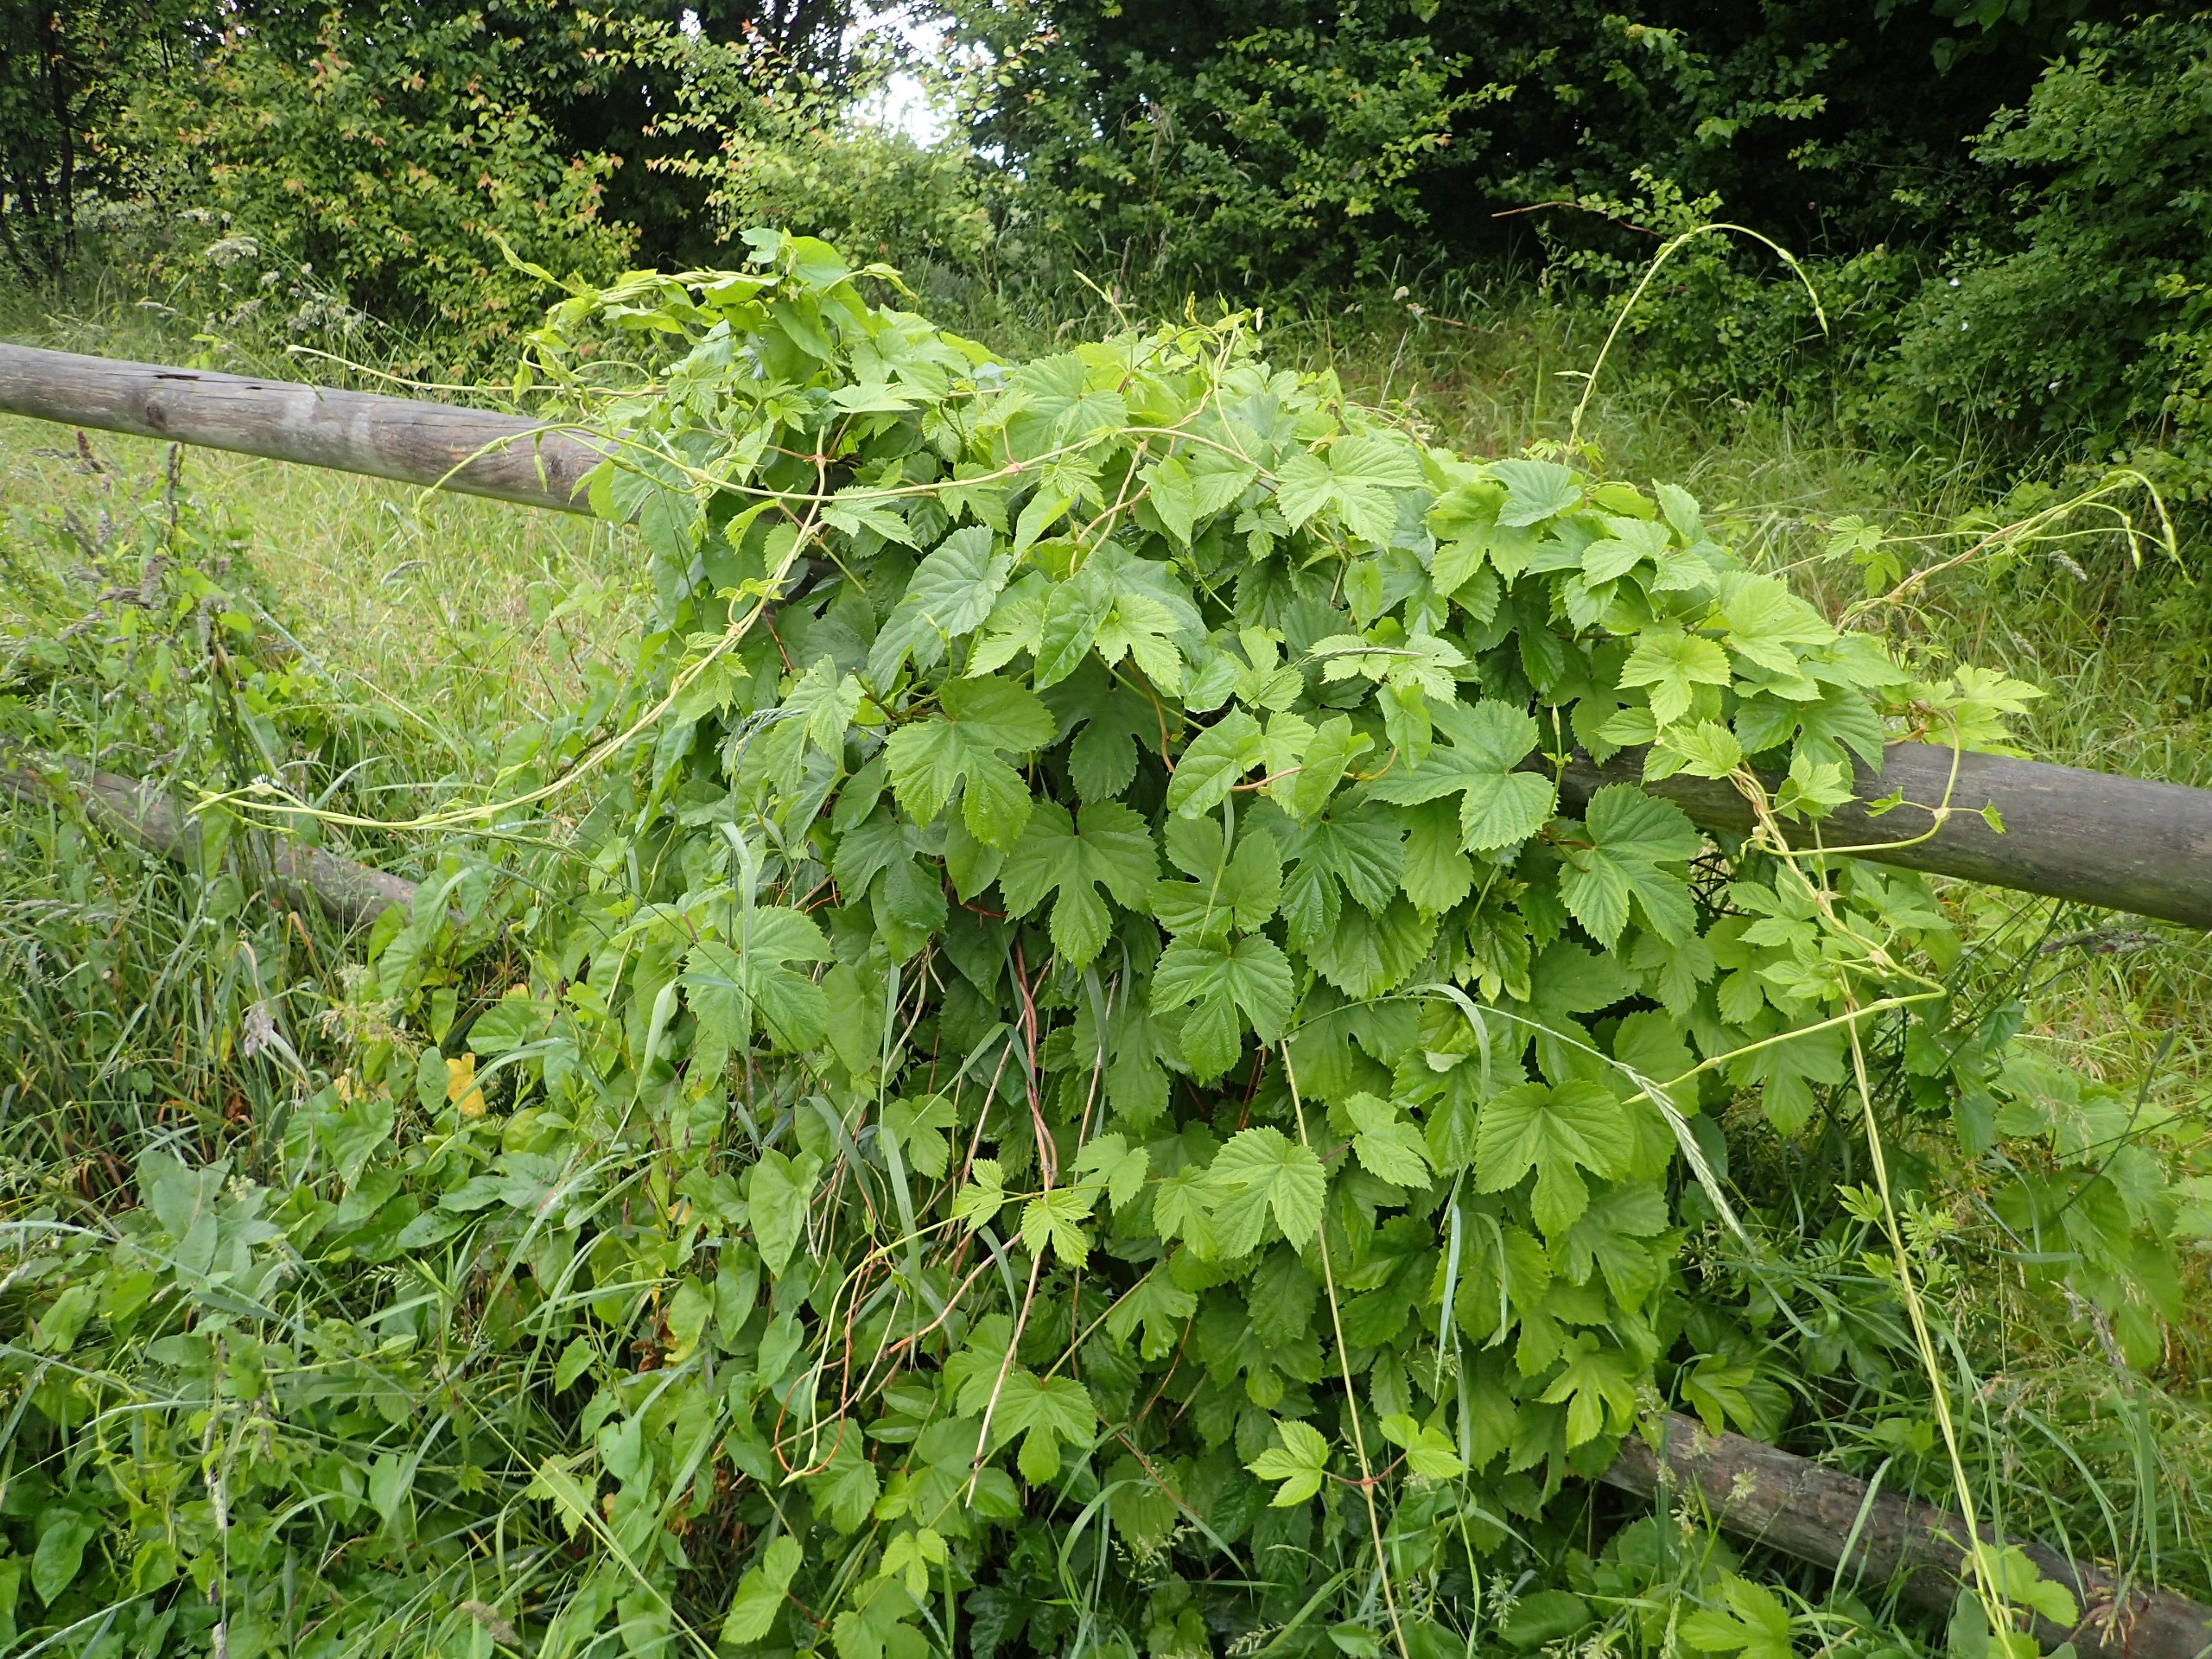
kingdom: Plantae
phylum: Tracheophyta
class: Magnoliopsida
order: Rosales
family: Cannabaceae
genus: Humulus
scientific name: Humulus lupulus
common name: Humle
